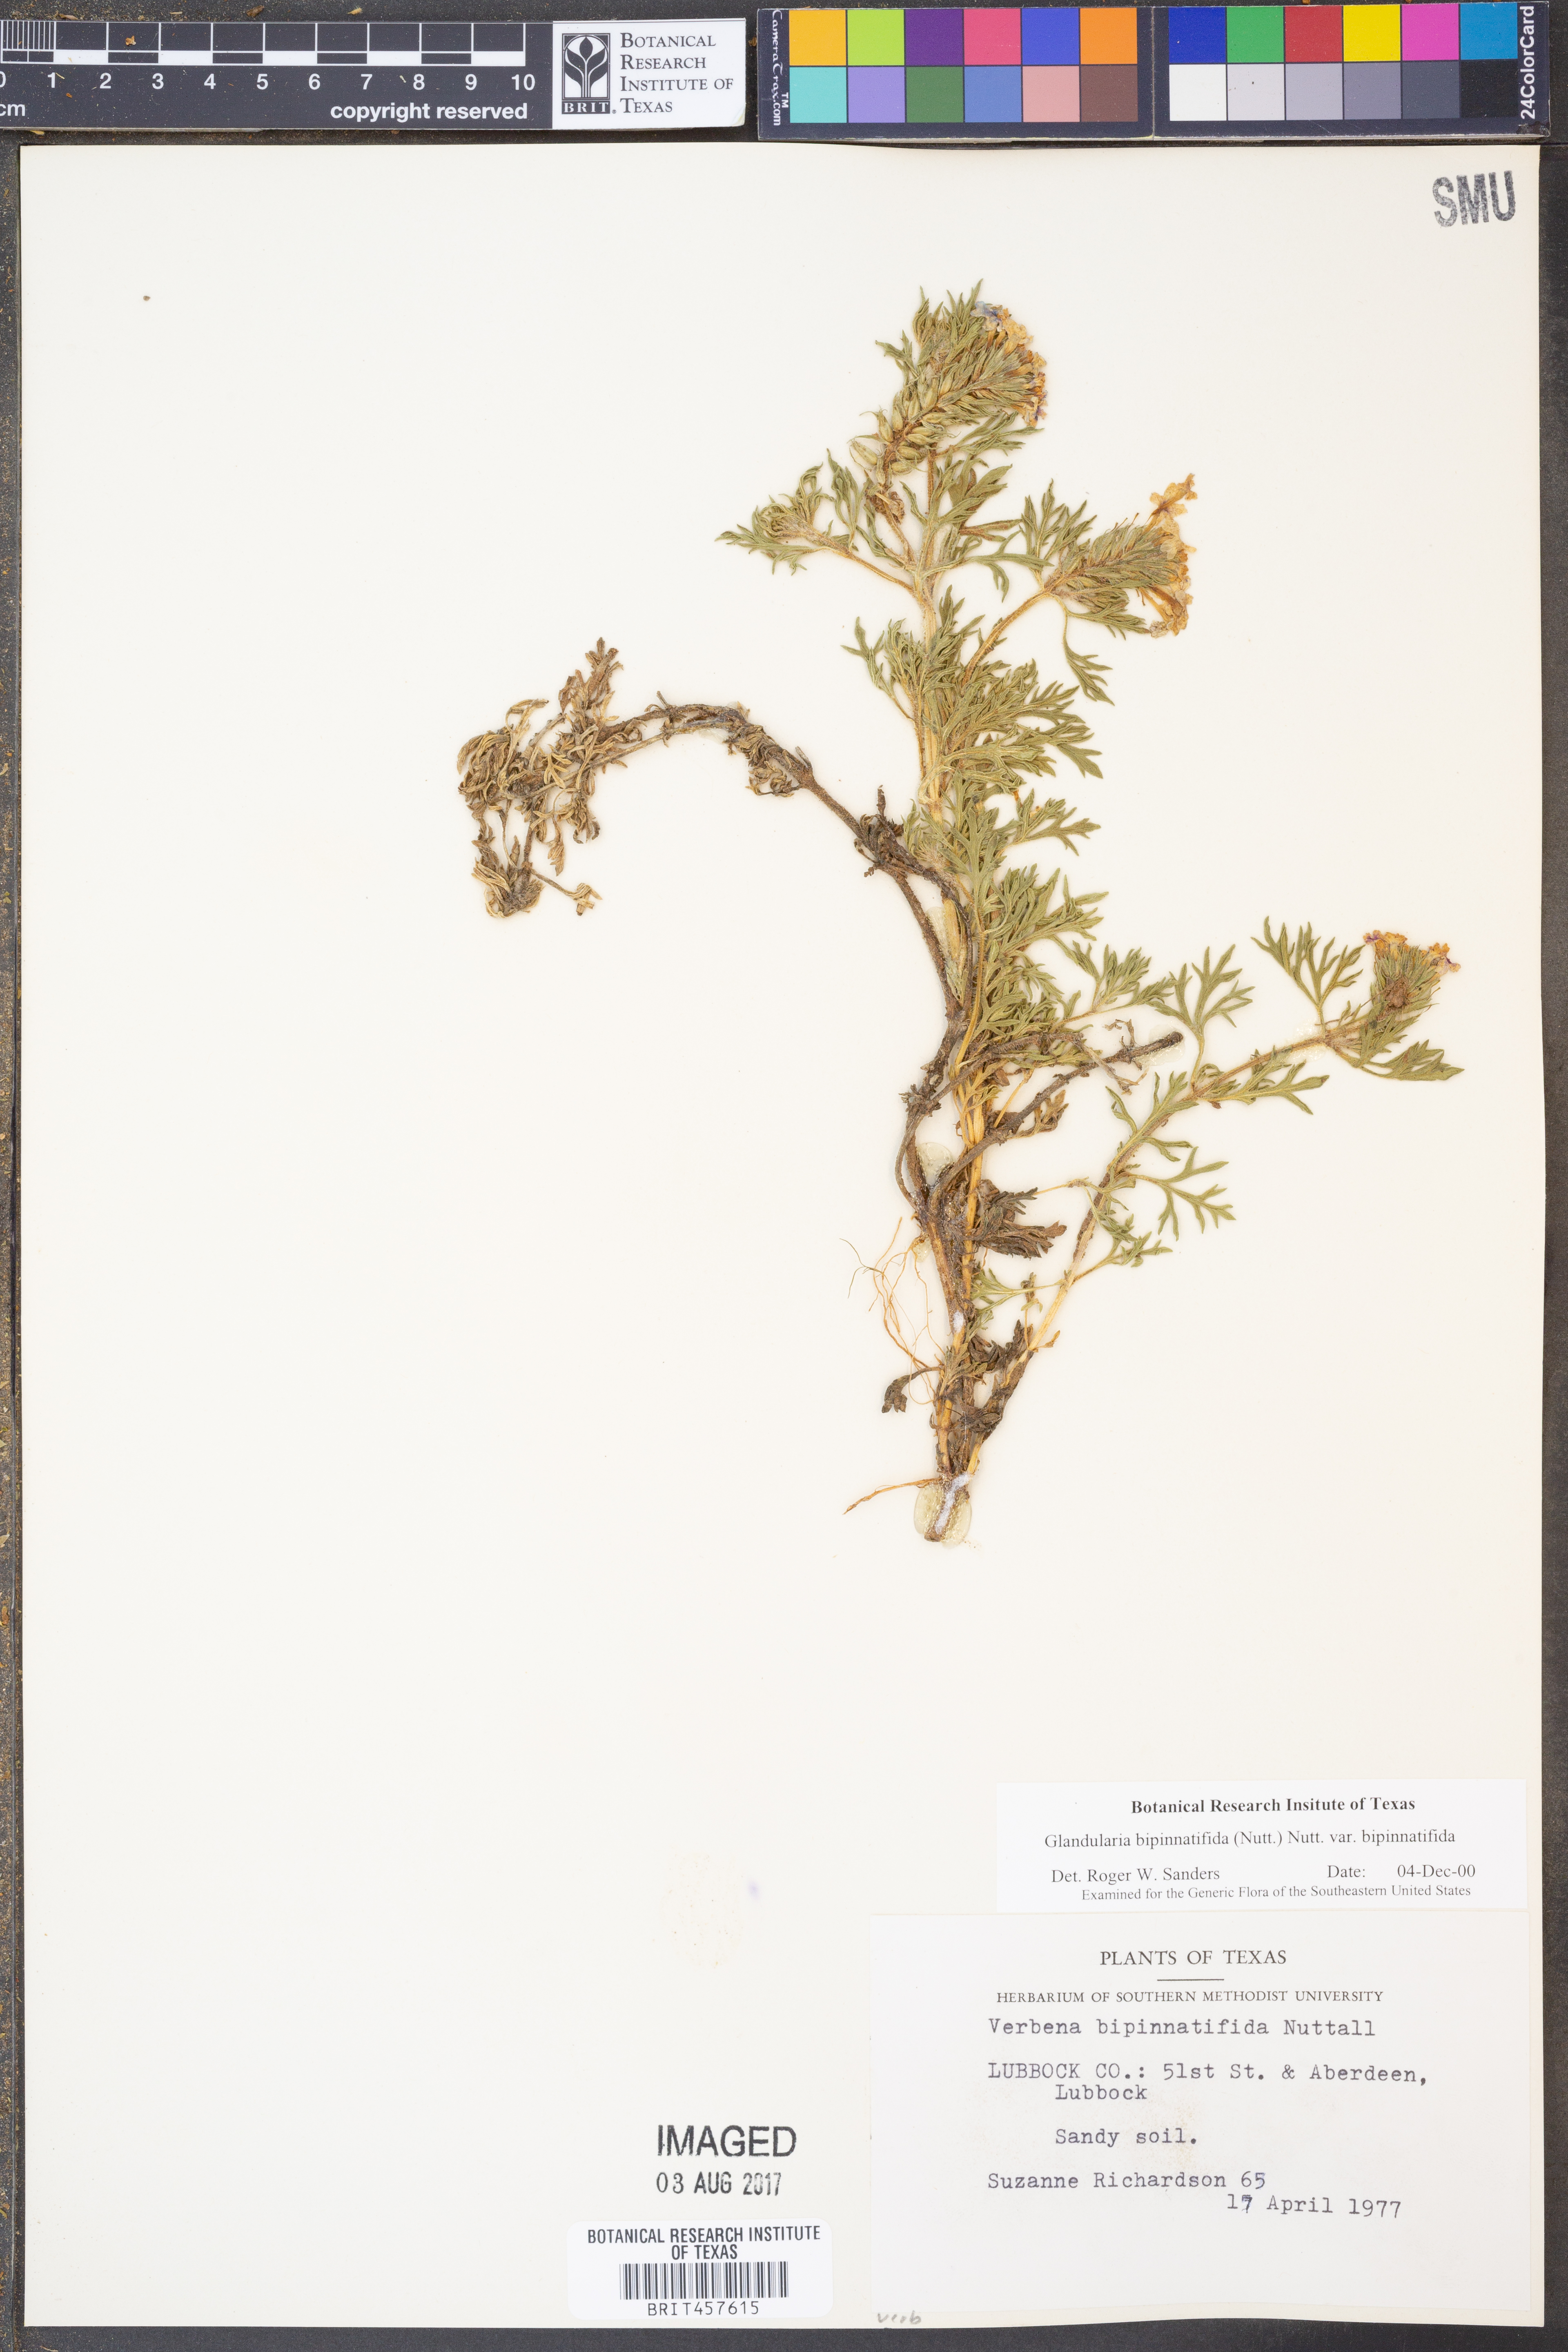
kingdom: Plantae
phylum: Tracheophyta
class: Magnoliopsida
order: Lamiales
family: Verbenaceae
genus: Verbena
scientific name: Verbena bipinnatifida
